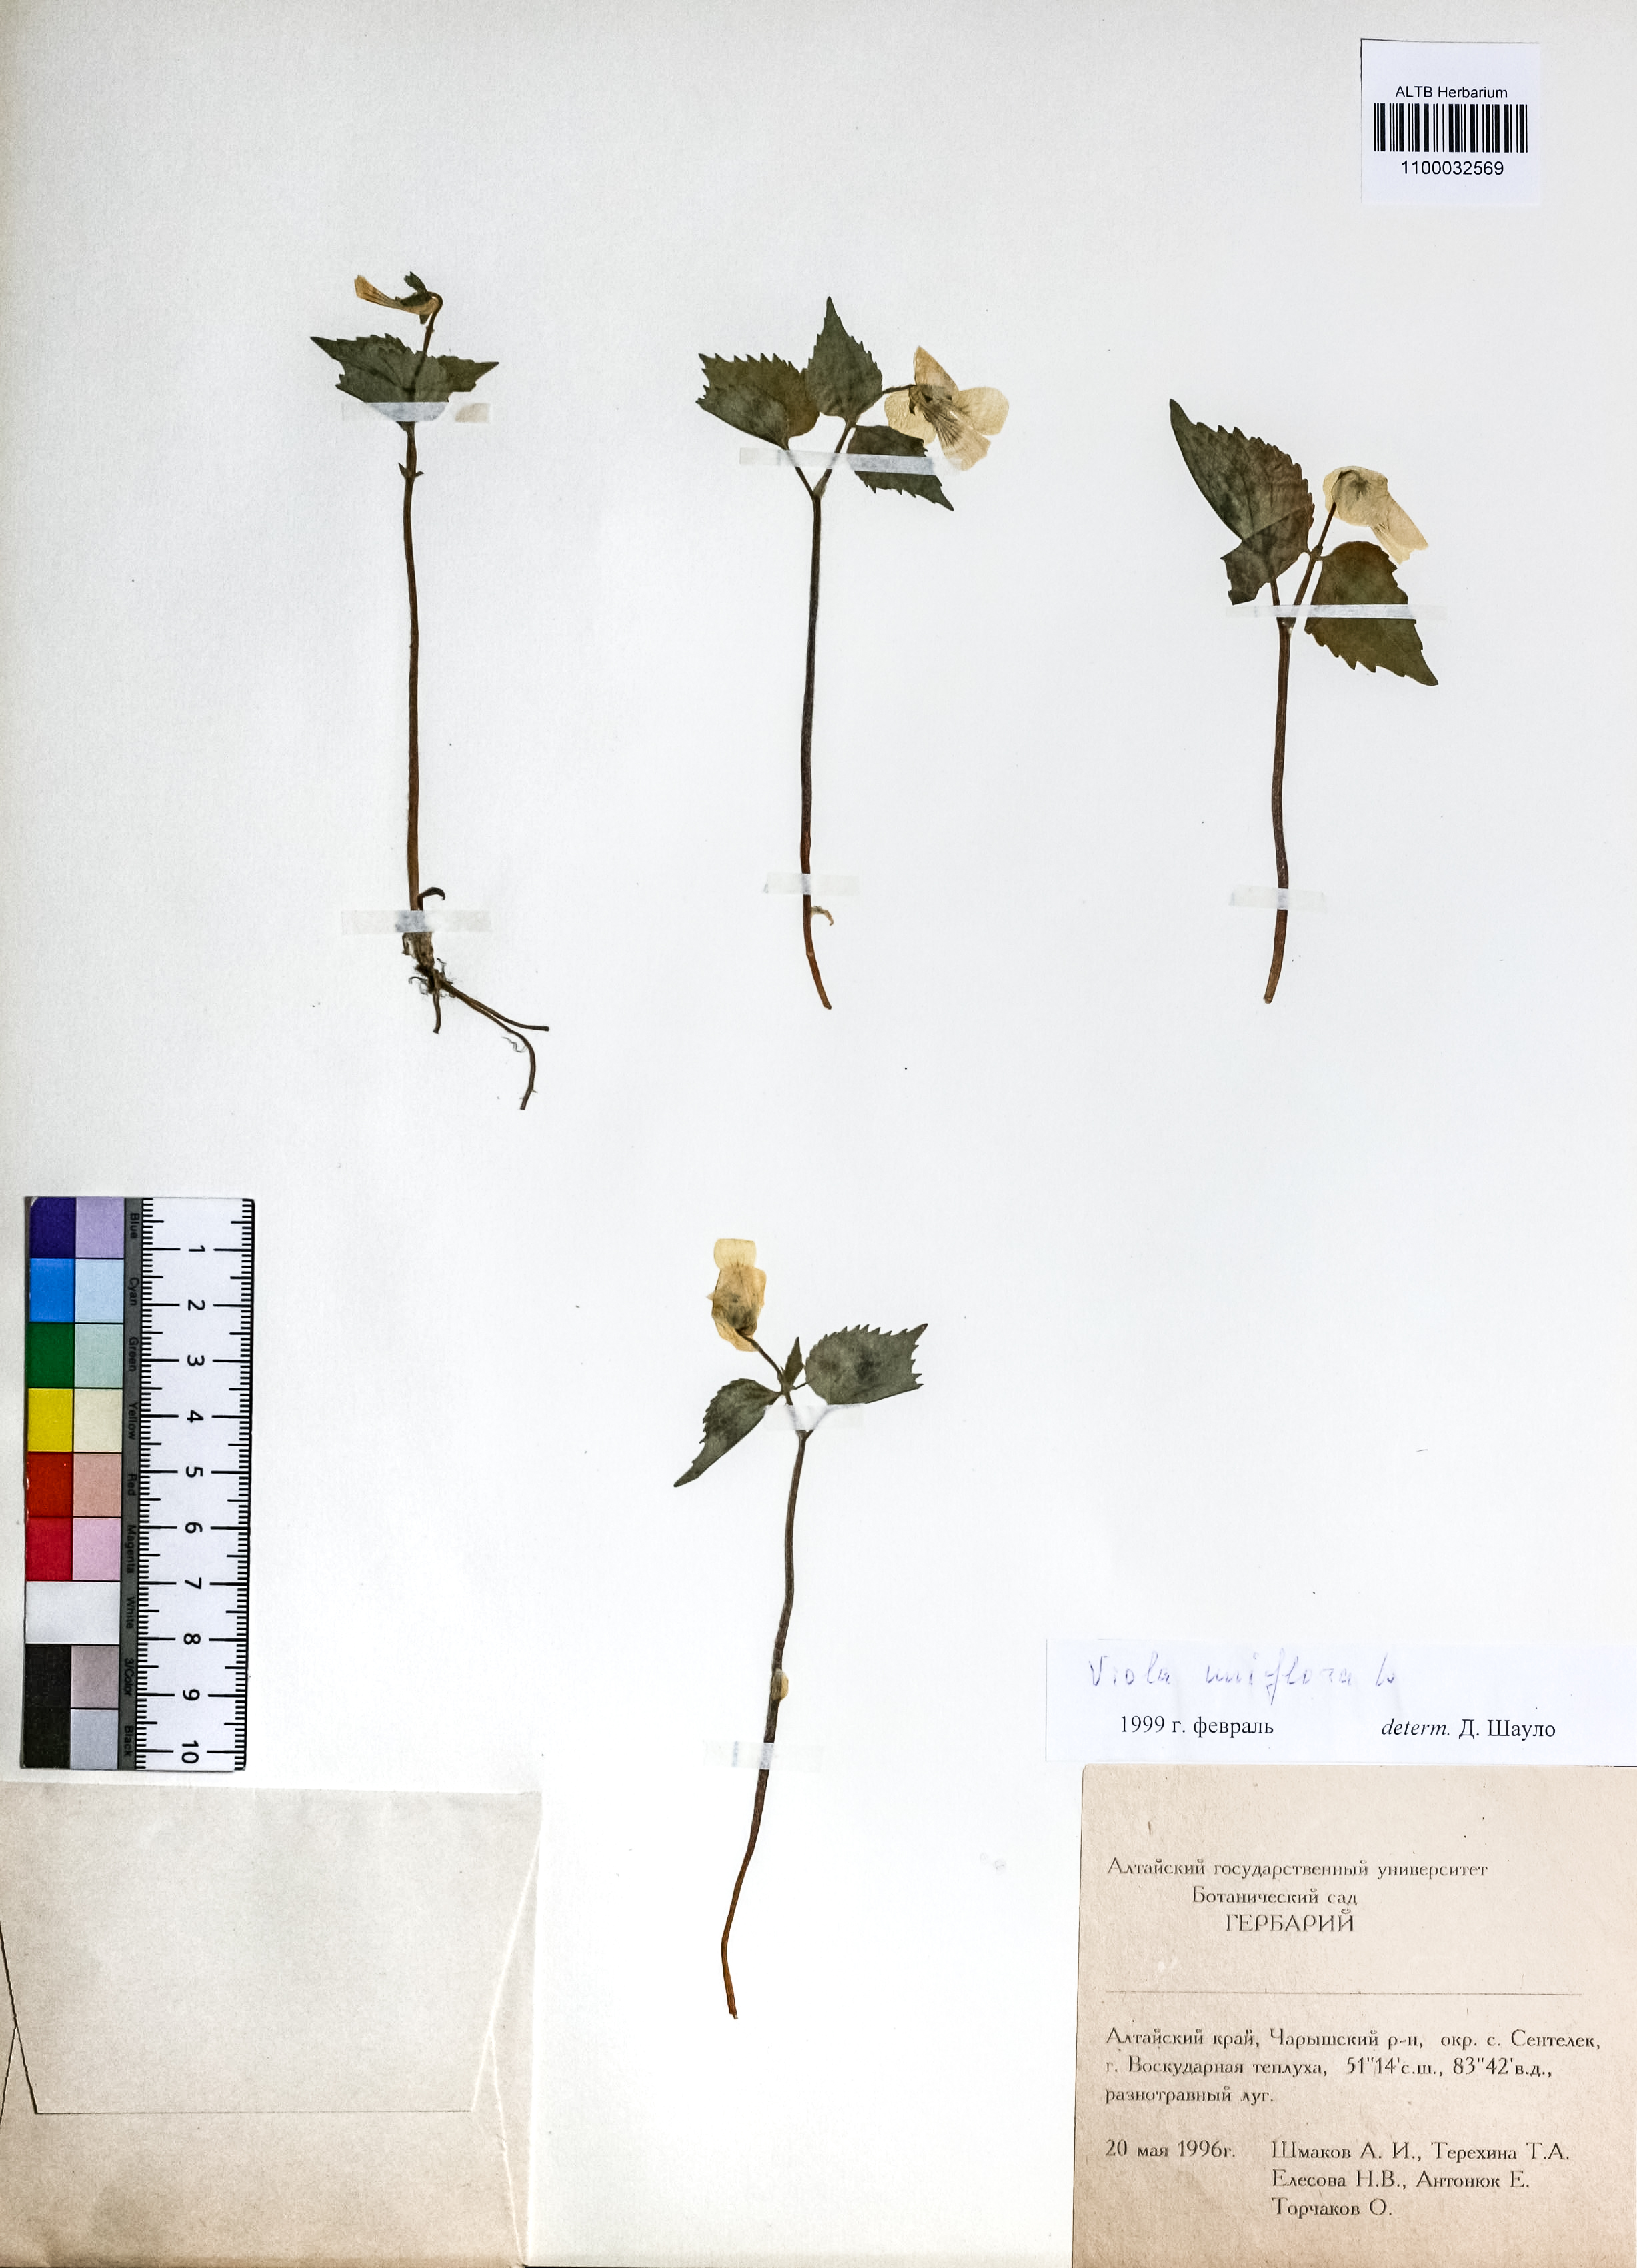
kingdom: Plantae
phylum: Tracheophyta
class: Magnoliopsida
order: Malpighiales
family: Violaceae
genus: Viola
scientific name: Viola uniflora
